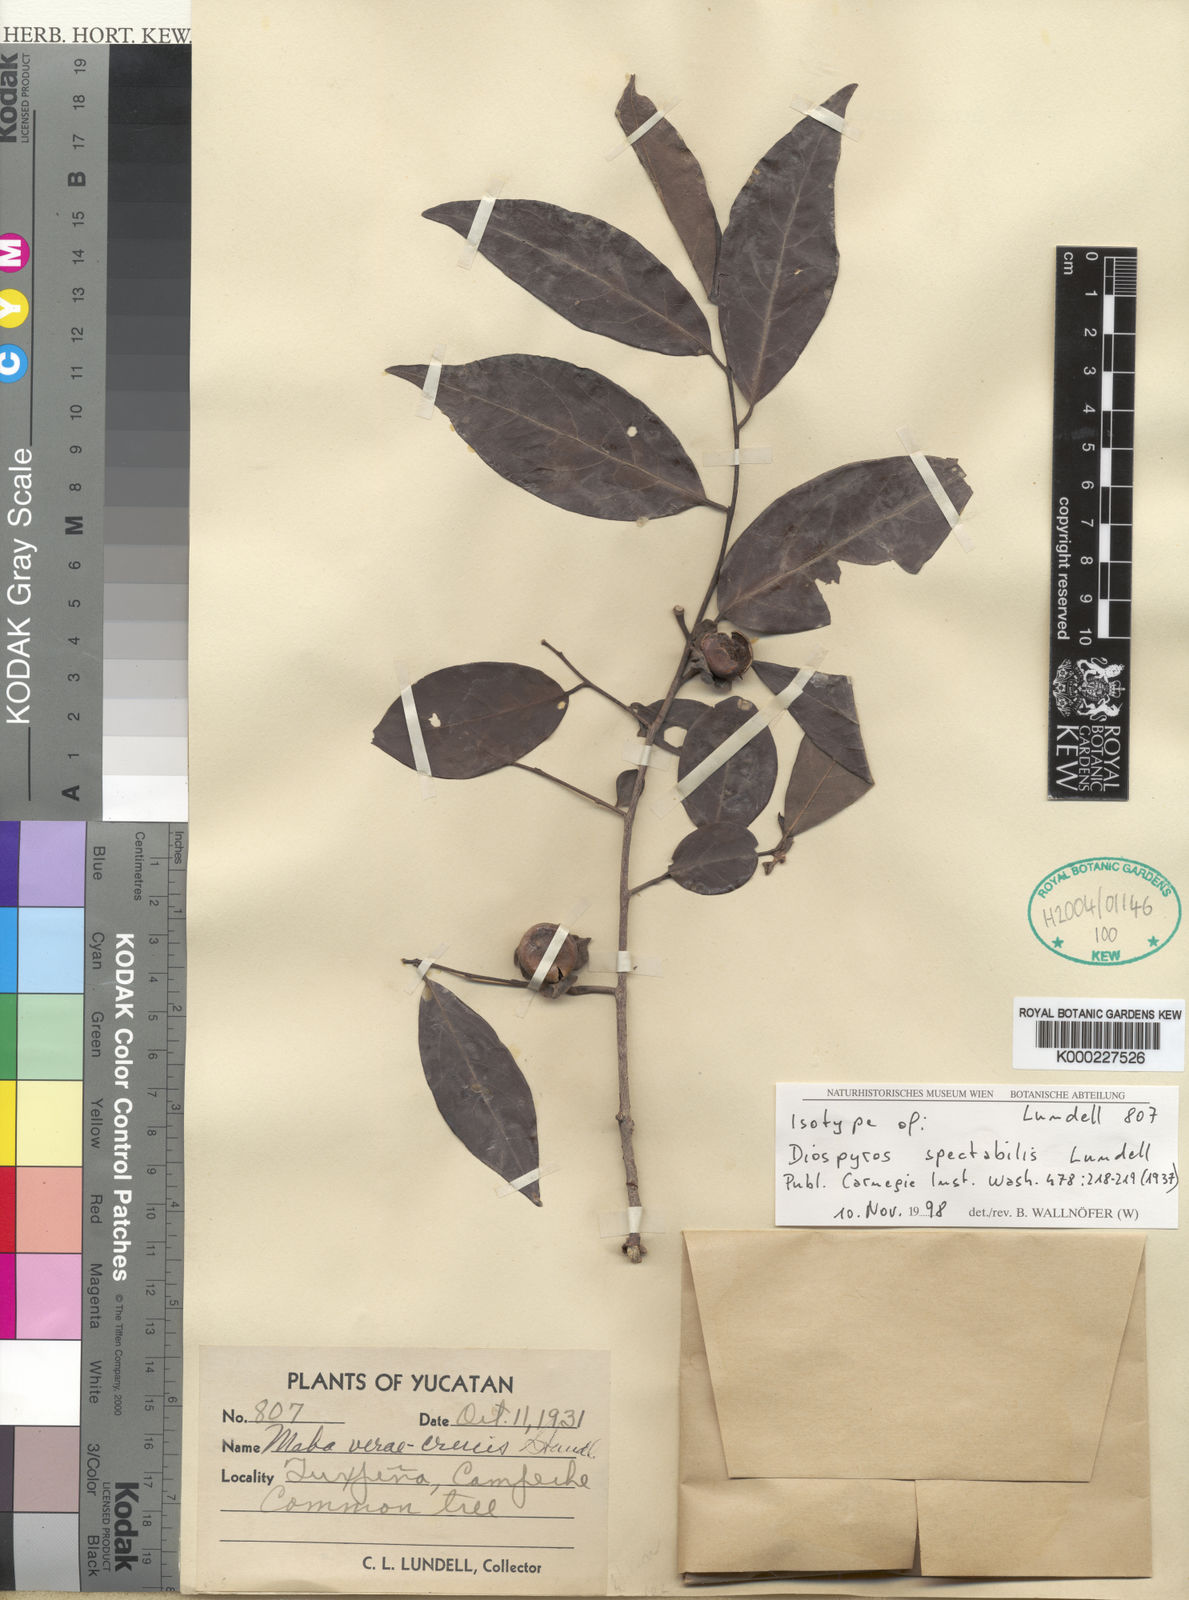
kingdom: Plantae
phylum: Tracheophyta
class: Magnoliopsida
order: Ericales
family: Ebenaceae
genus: Diospyros
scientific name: Diospyros yucatanensis
